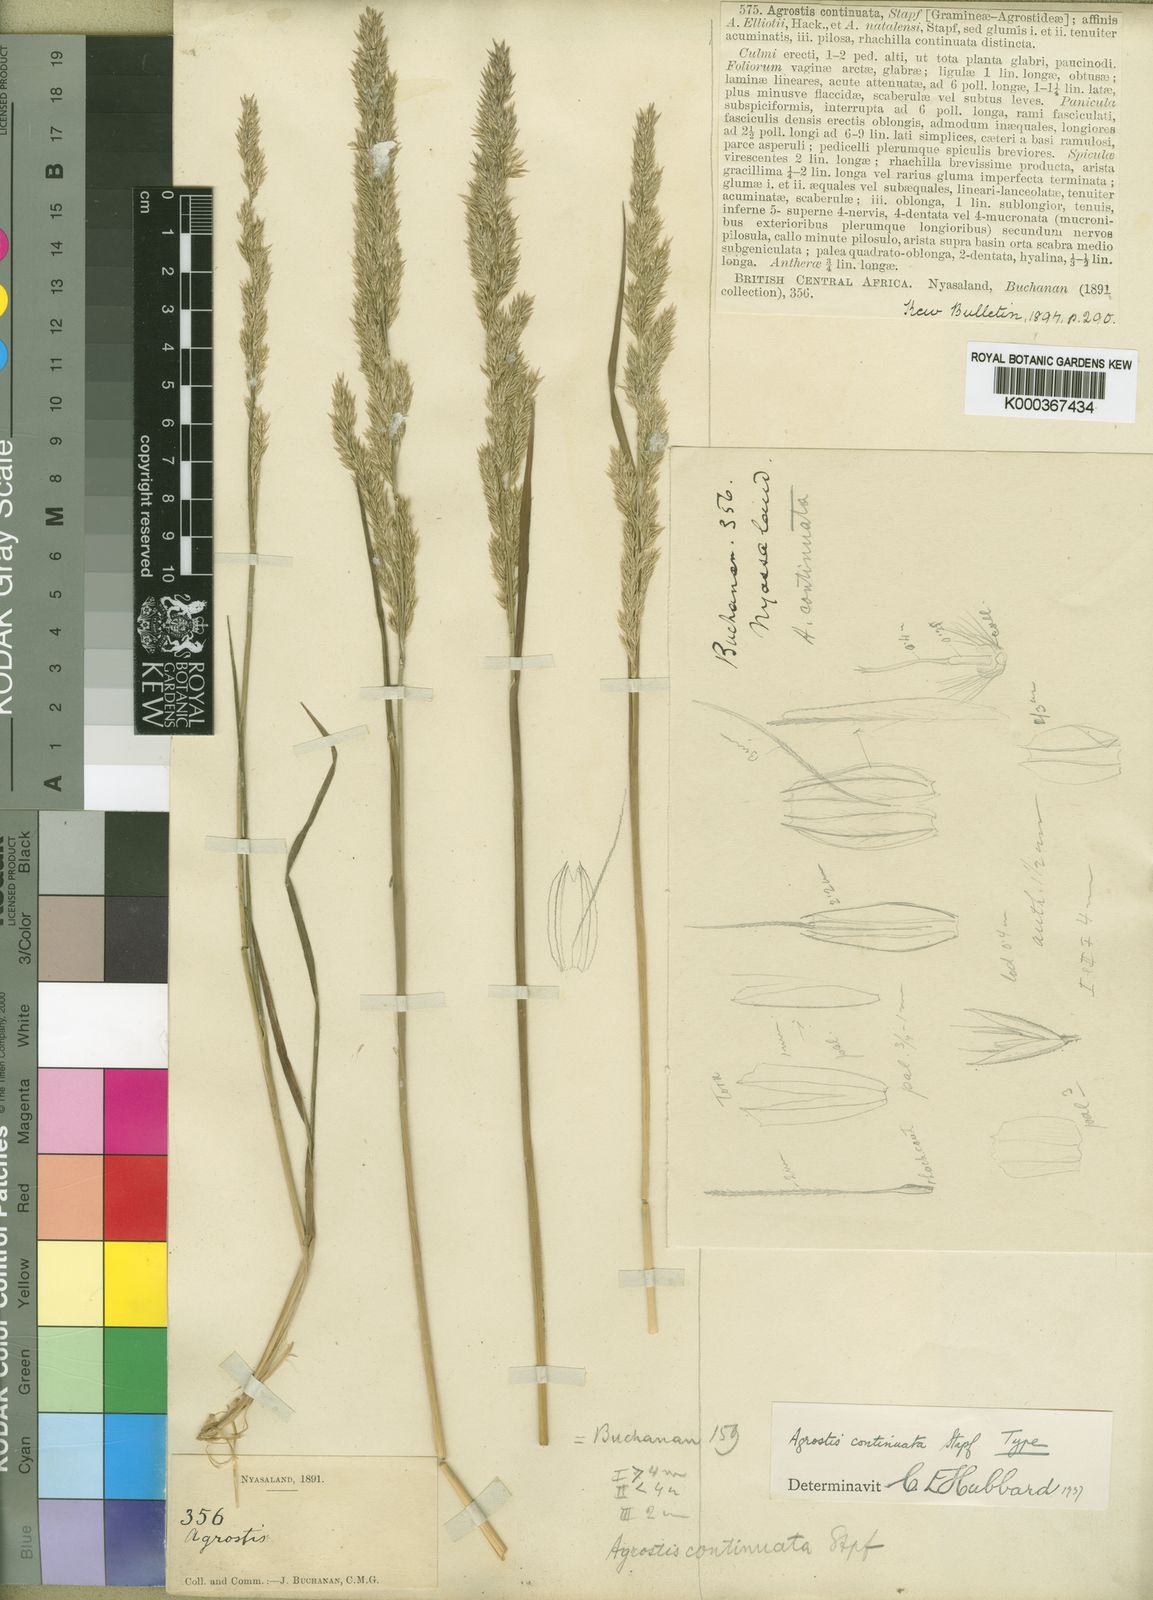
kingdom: Plantae
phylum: Tracheophyta
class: Liliopsida
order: Poales
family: Poaceae
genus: Agrostis
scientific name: Agrostis continuata
